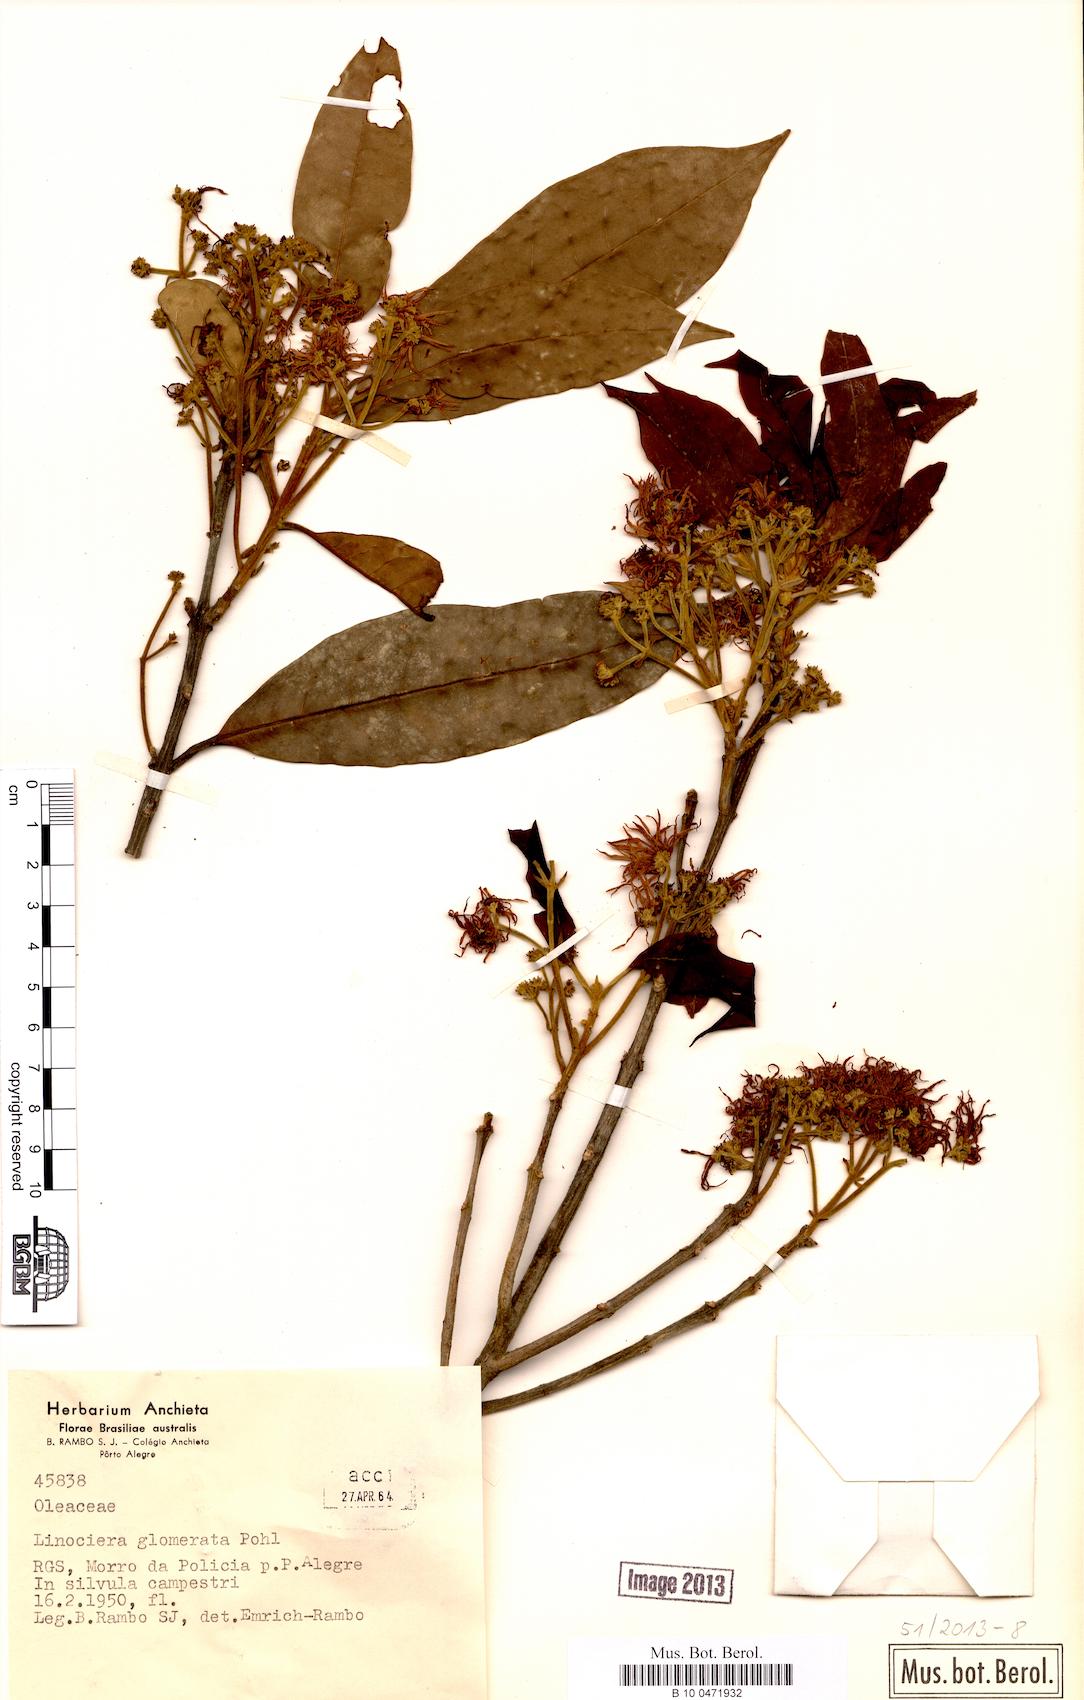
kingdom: Plantae
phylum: Tracheophyta
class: Magnoliopsida
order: Lamiales
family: Oleaceae
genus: Chionanthus
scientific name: Chionanthus trichotomus
